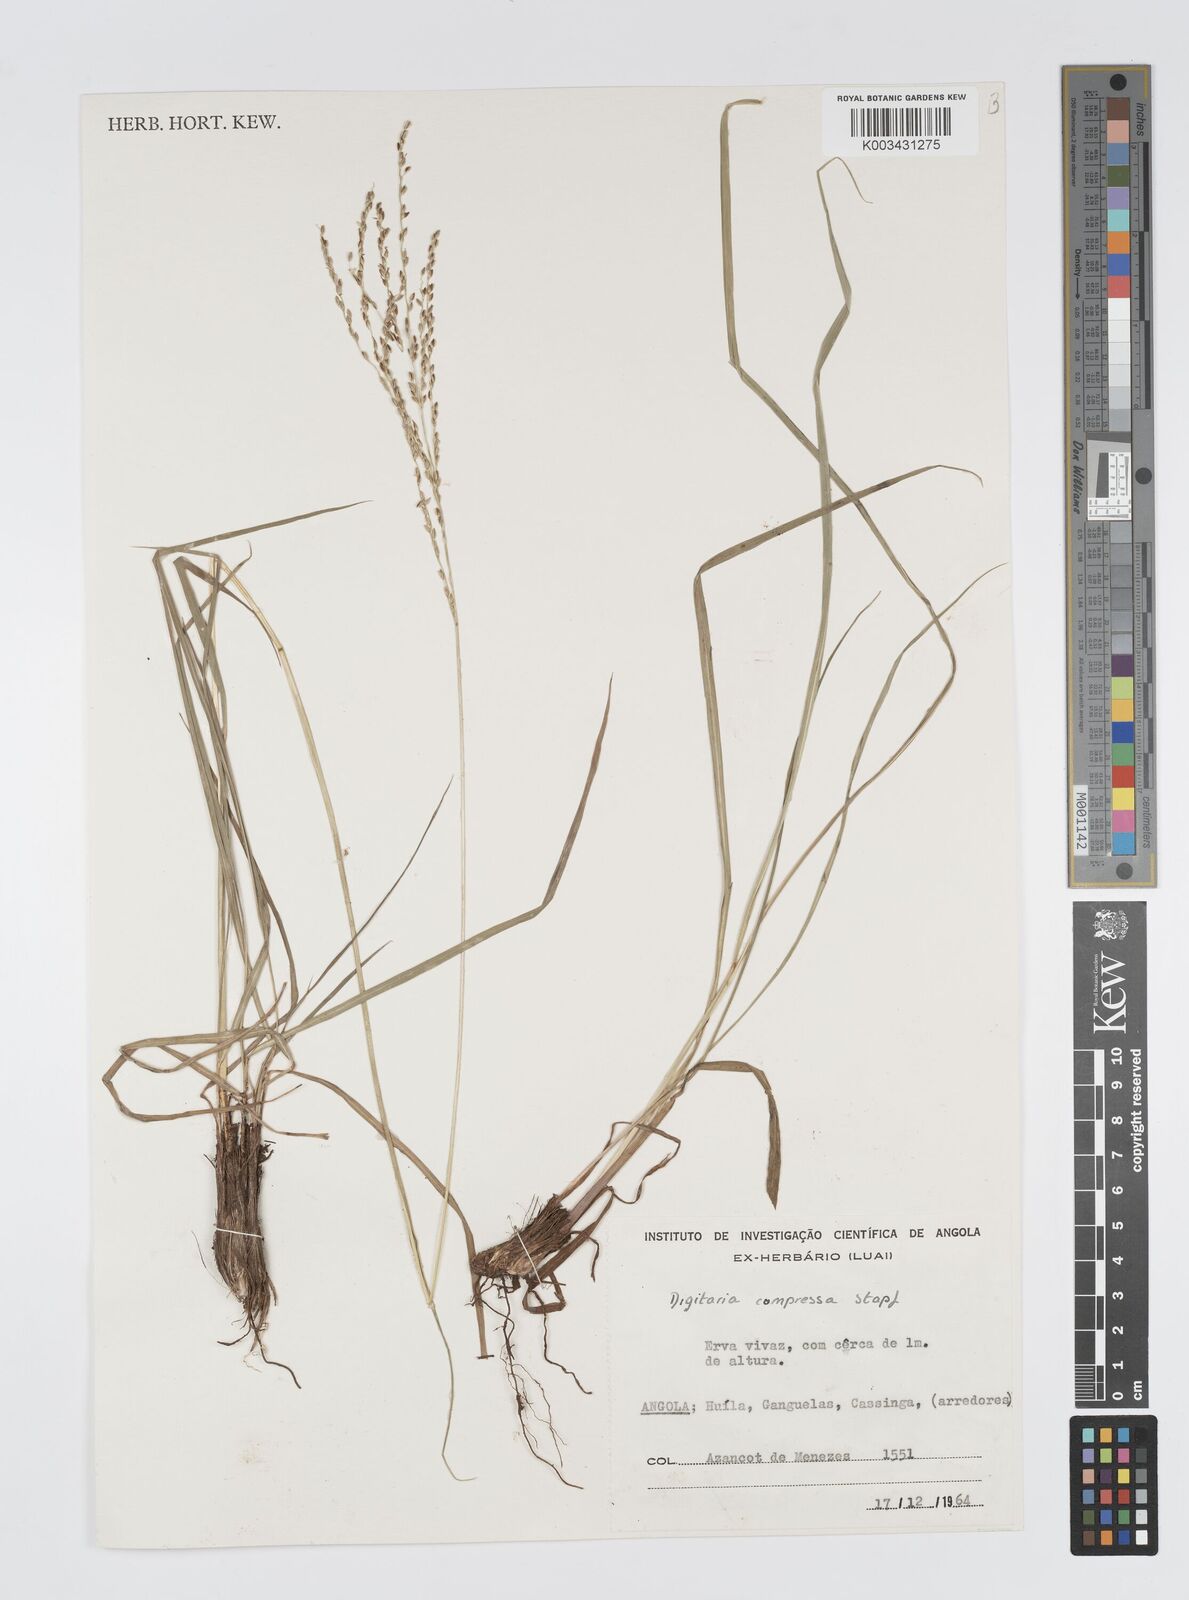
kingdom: Plantae
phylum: Tracheophyta
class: Liliopsida
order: Poales
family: Poaceae
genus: Digitaria
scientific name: Digitaria compressa
